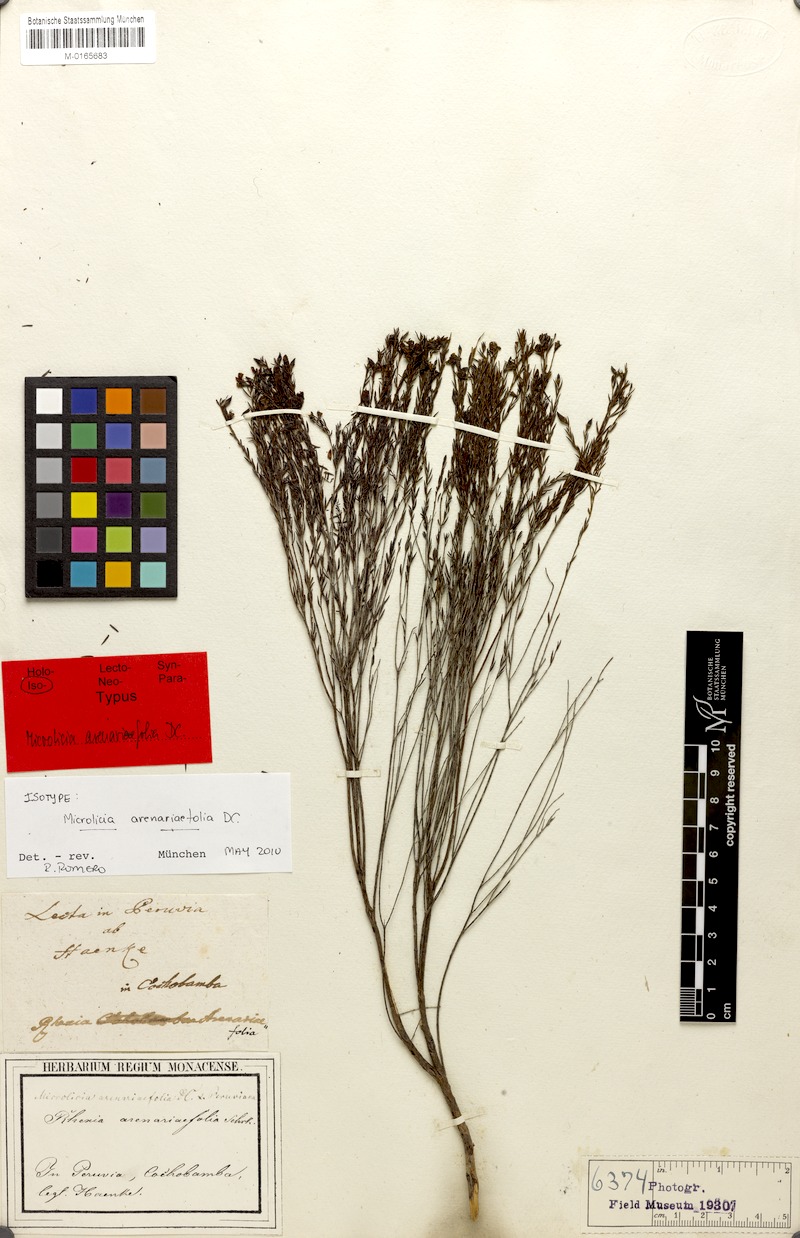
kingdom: Plantae
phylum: Tracheophyta
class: Magnoliopsida
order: Myrtales
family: Melastomataceae
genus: Microlicia
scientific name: Microlicia arenariifolia
